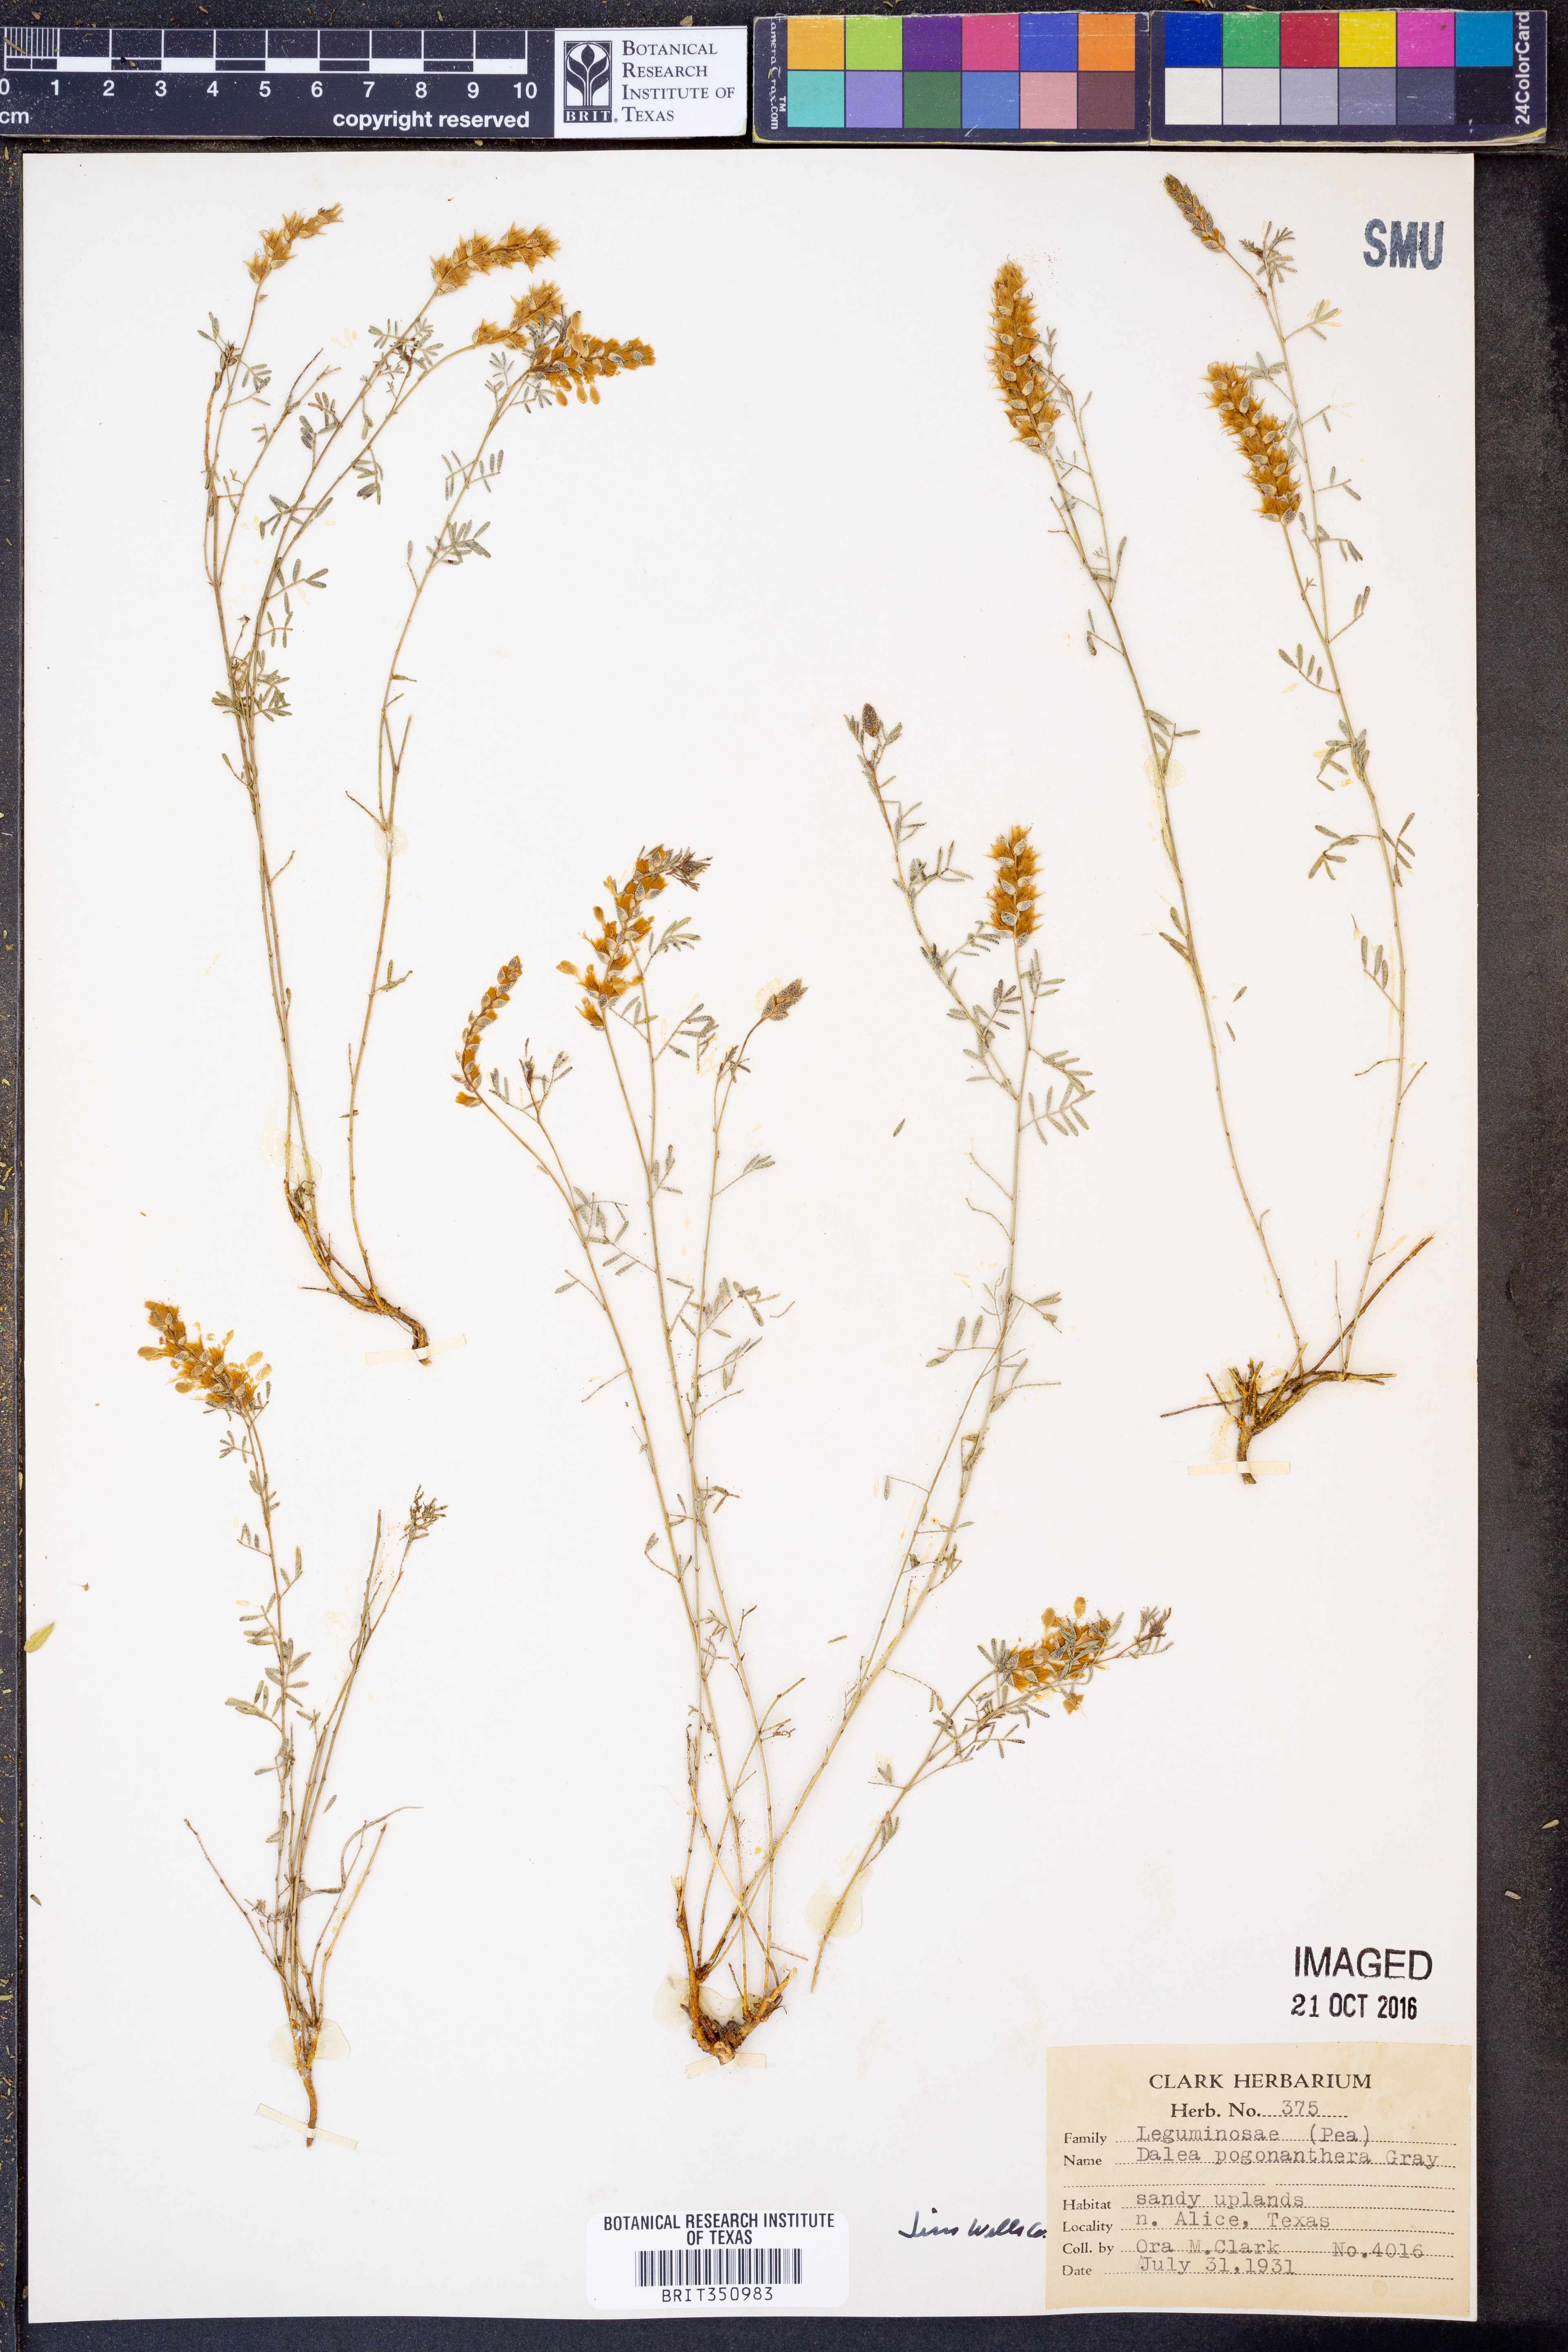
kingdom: Plantae
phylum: Tracheophyta
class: Magnoliopsida
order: Fabales
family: Fabaceae
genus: Dalea
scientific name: Dalea pogonathera
